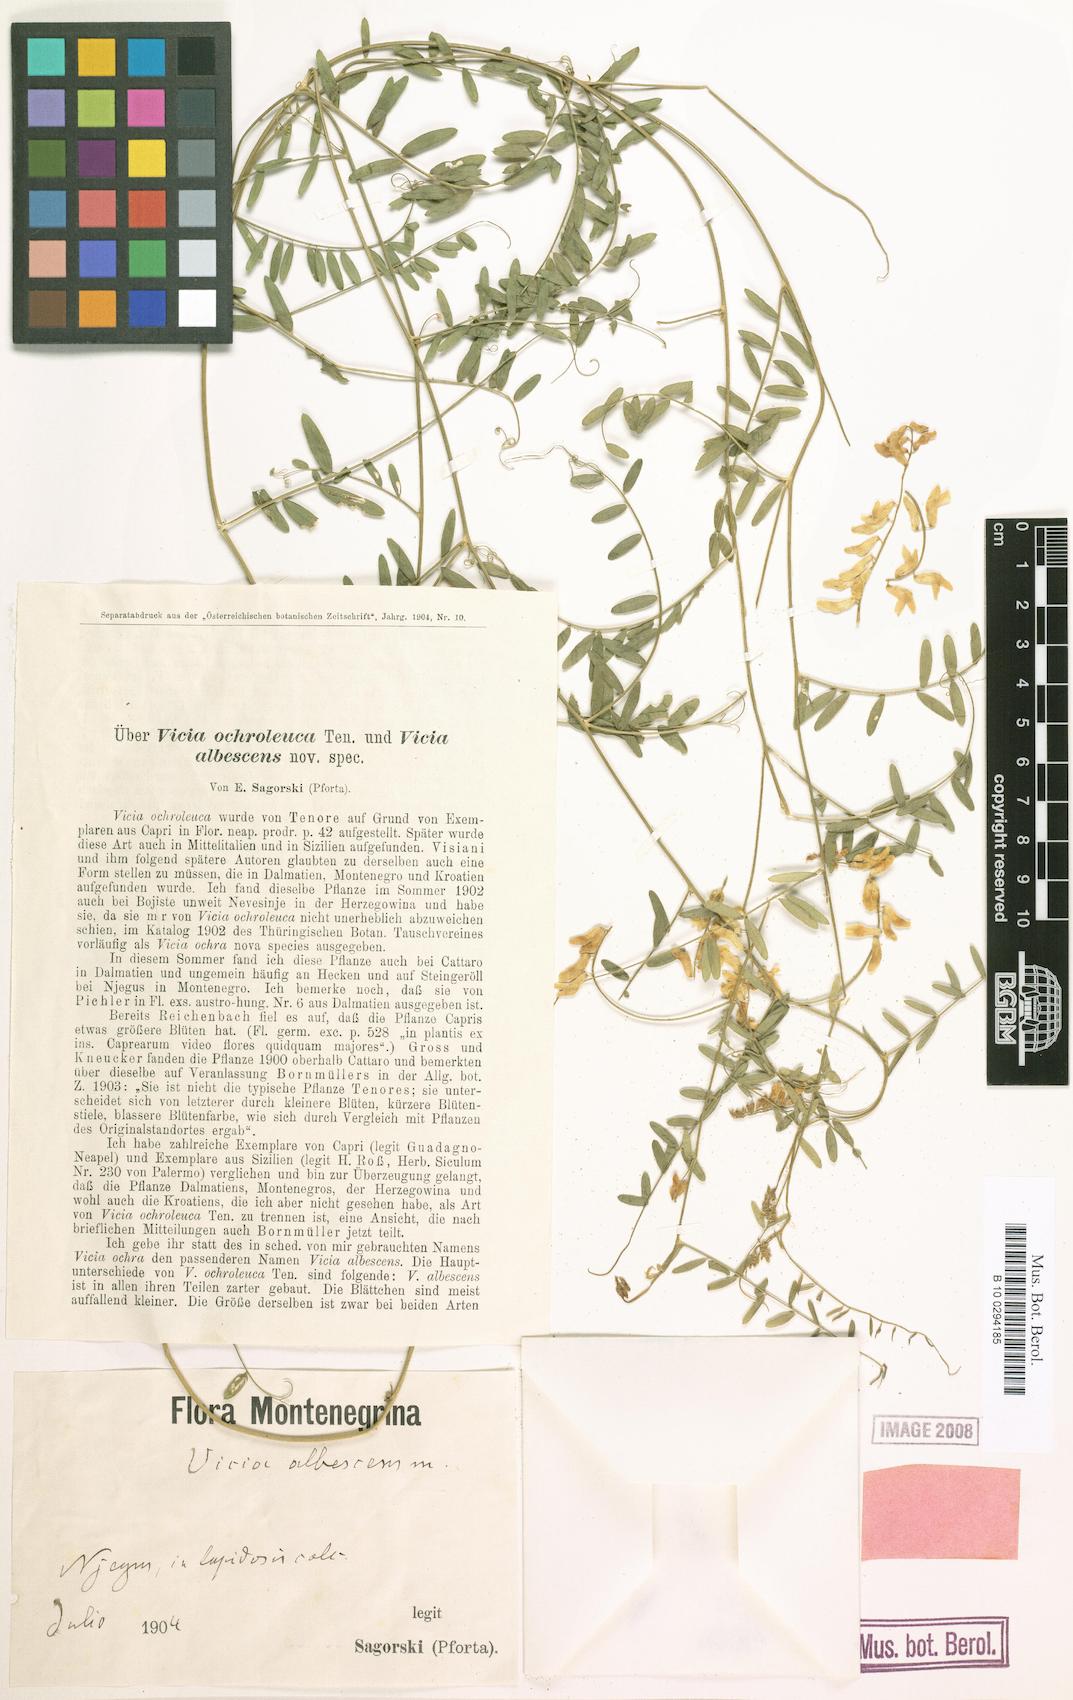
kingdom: Plantae
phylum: Tracheophyta
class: Magnoliopsida
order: Fabales
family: Fabaceae
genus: Vicia
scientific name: Vicia ochroleuca
